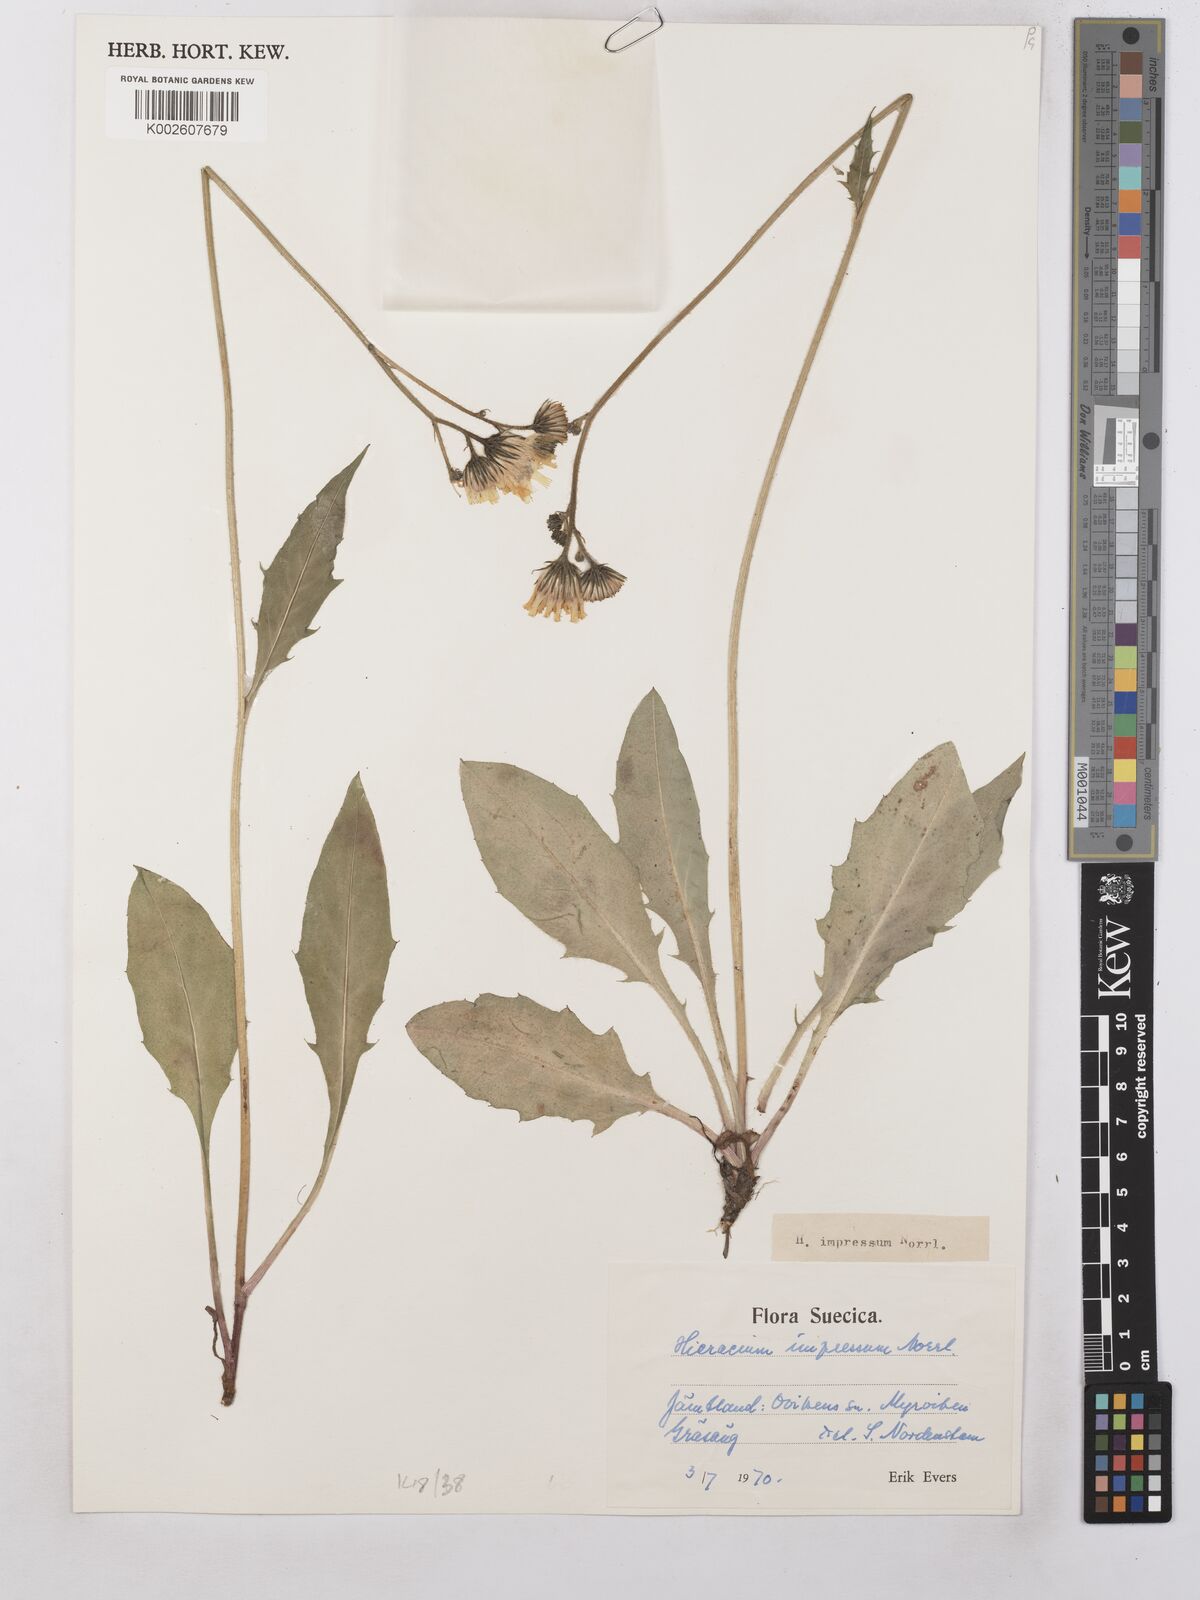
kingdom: Plantae
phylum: Tracheophyta
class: Magnoliopsida
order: Asterales
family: Asteraceae
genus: Hieracium
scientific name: Hieracium subramosum
